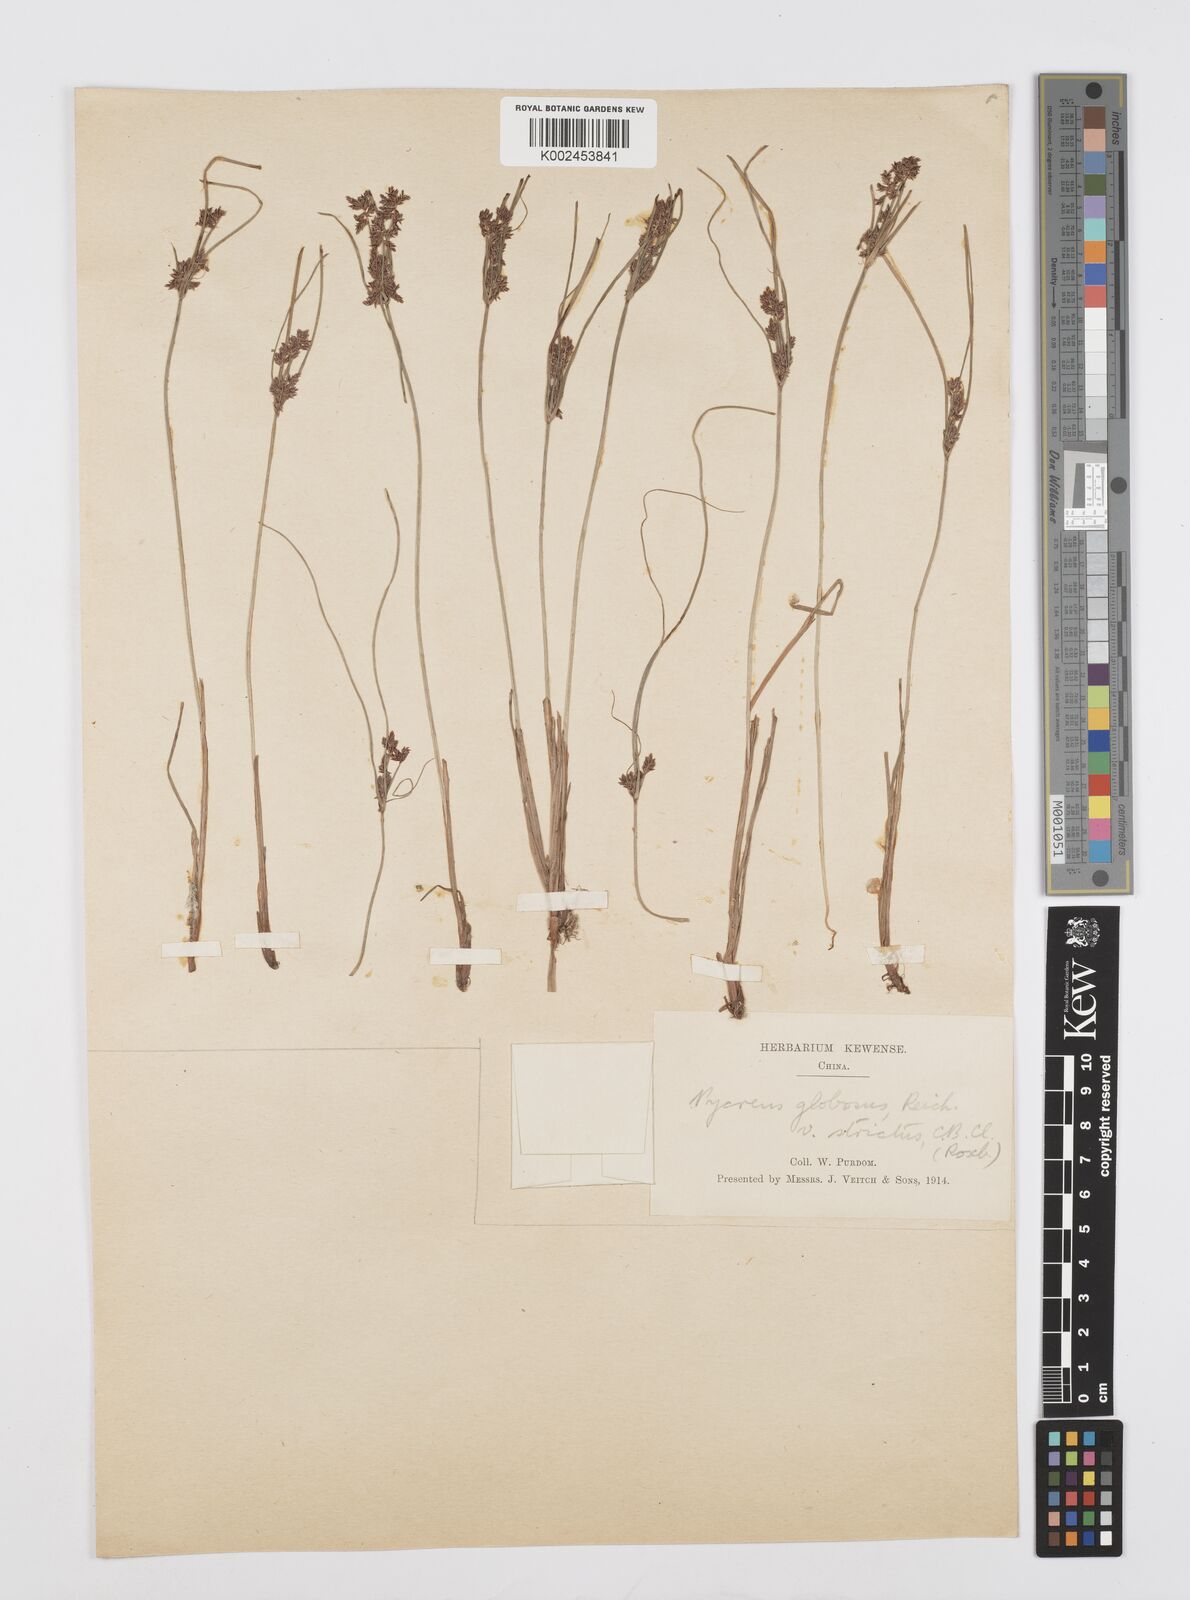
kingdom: Plantae
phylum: Tracheophyta
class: Liliopsida
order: Poales
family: Cyperaceae
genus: Cyperus
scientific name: Cyperus flavidus
